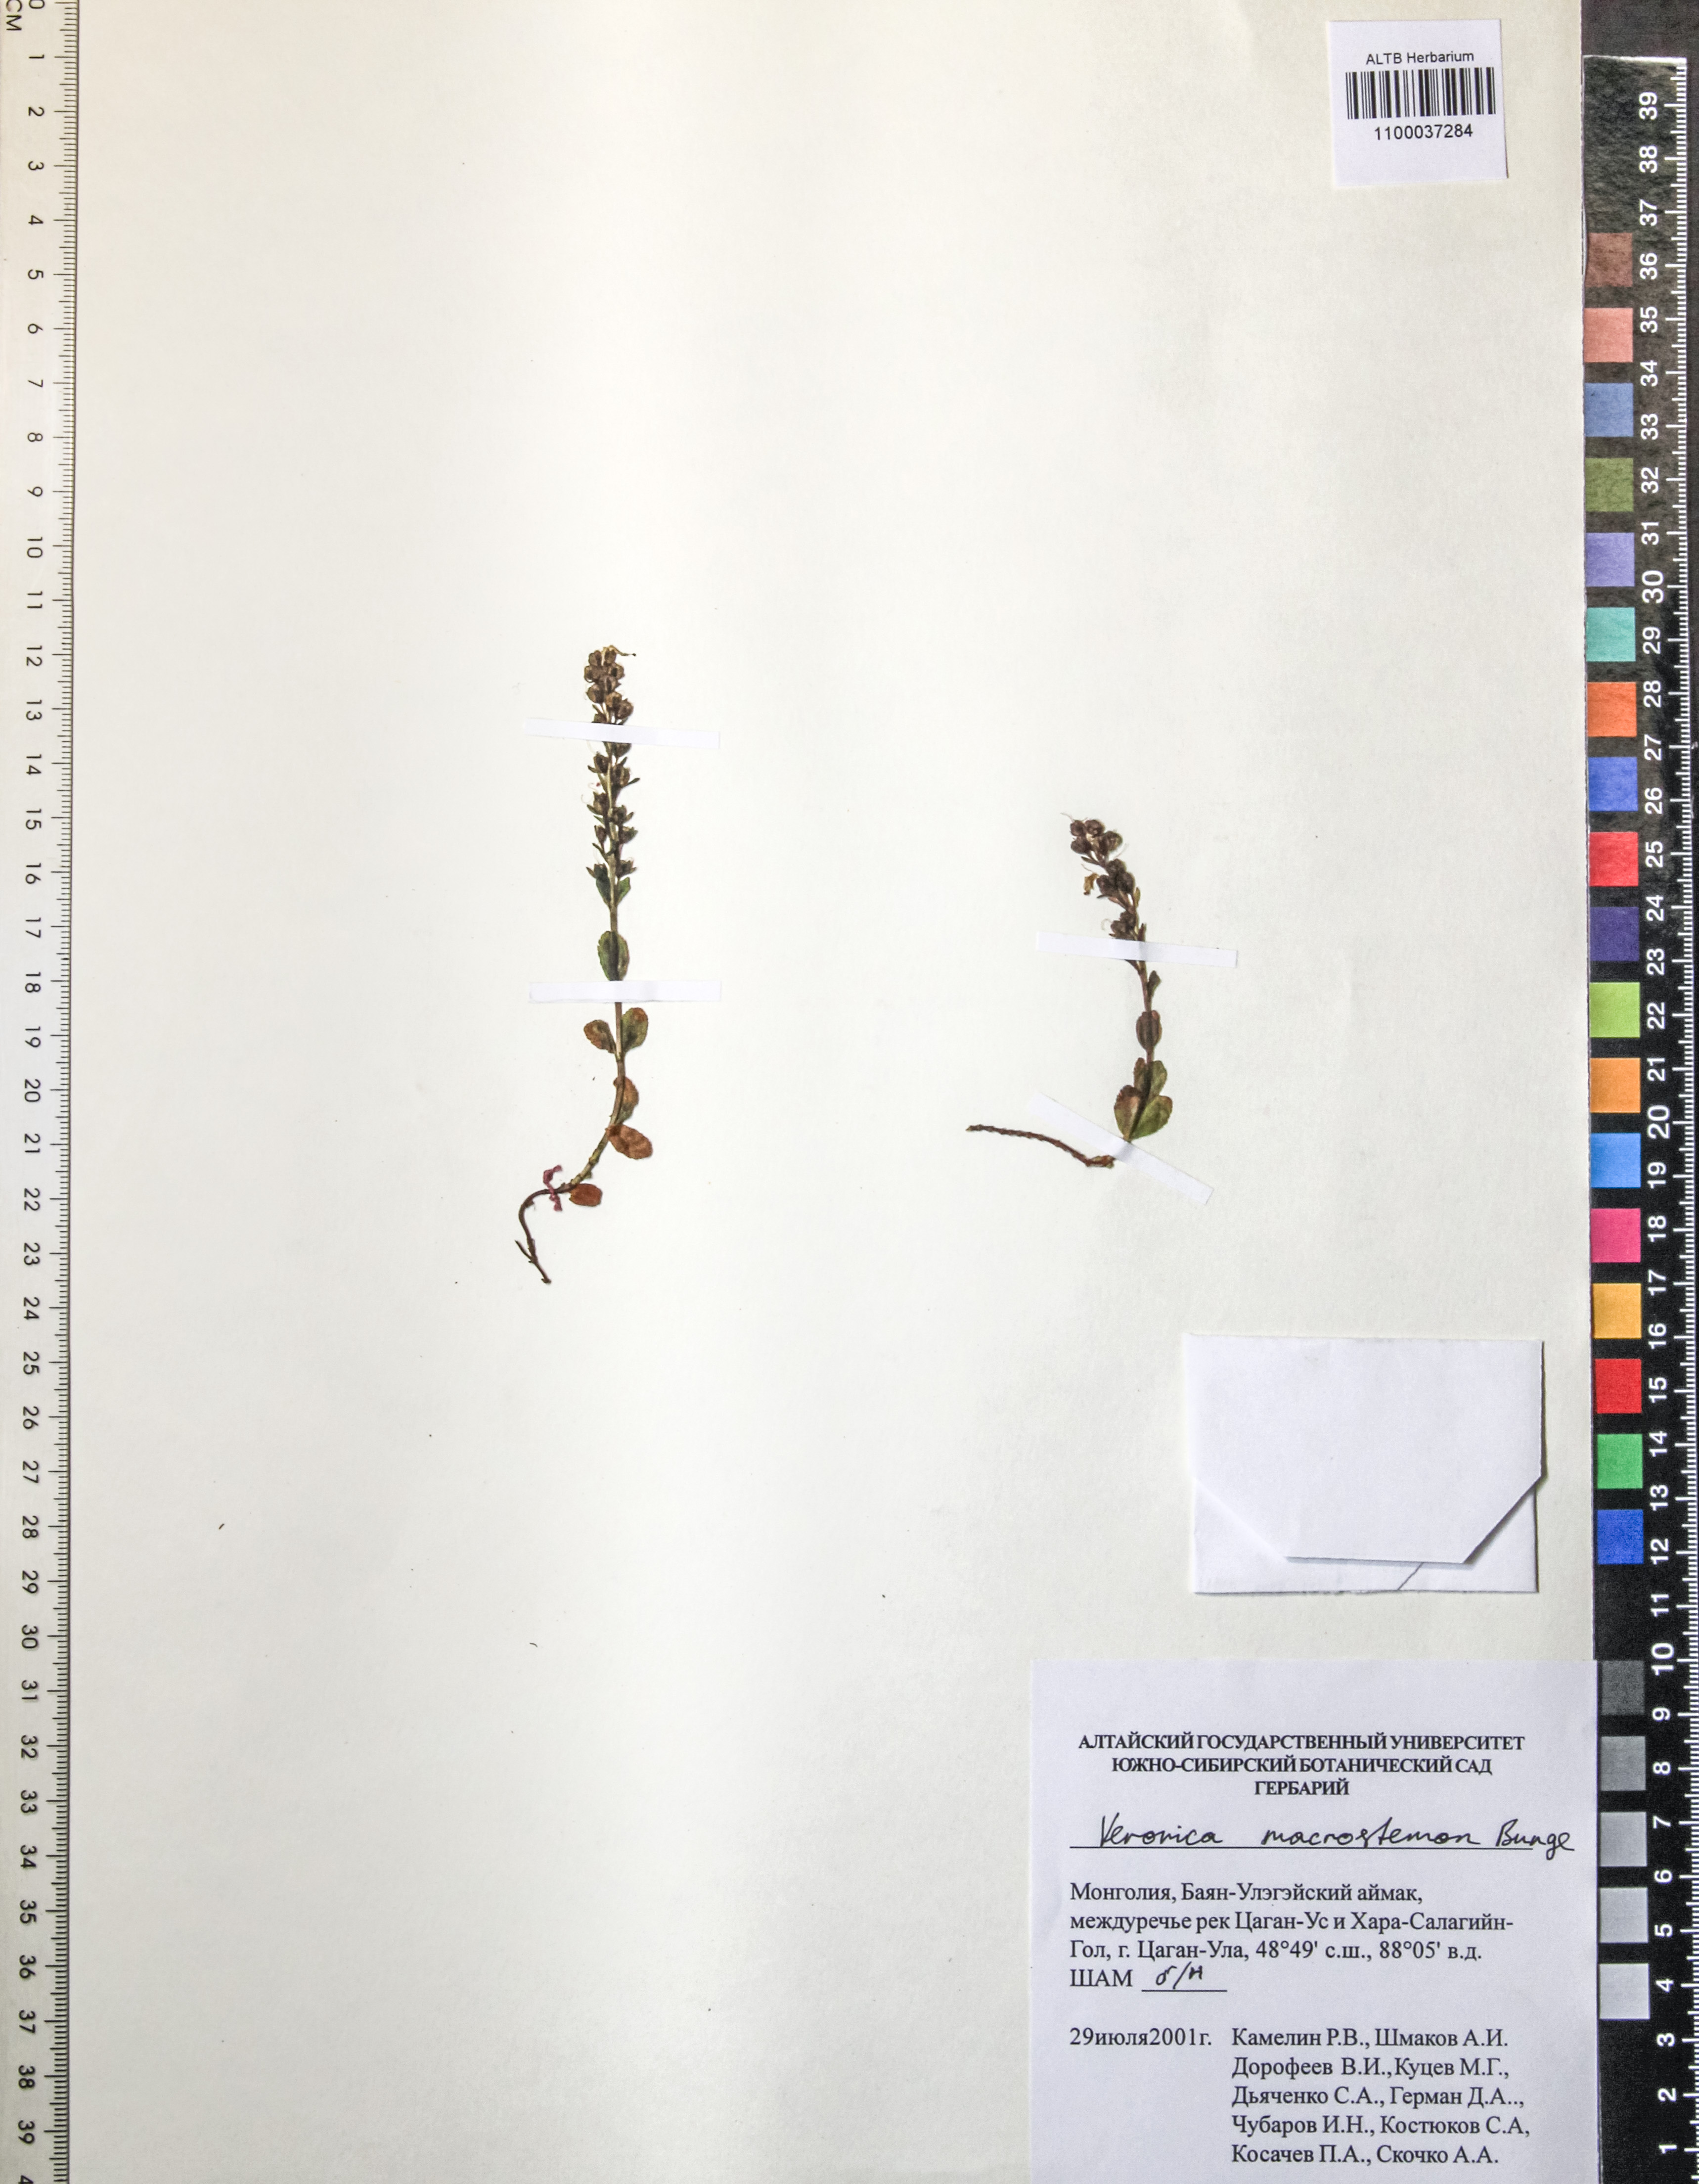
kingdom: Plantae
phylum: Tracheophyta
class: Magnoliopsida
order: Lamiales
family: Plantaginaceae
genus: Veronica
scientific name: Veronica macrostemon
